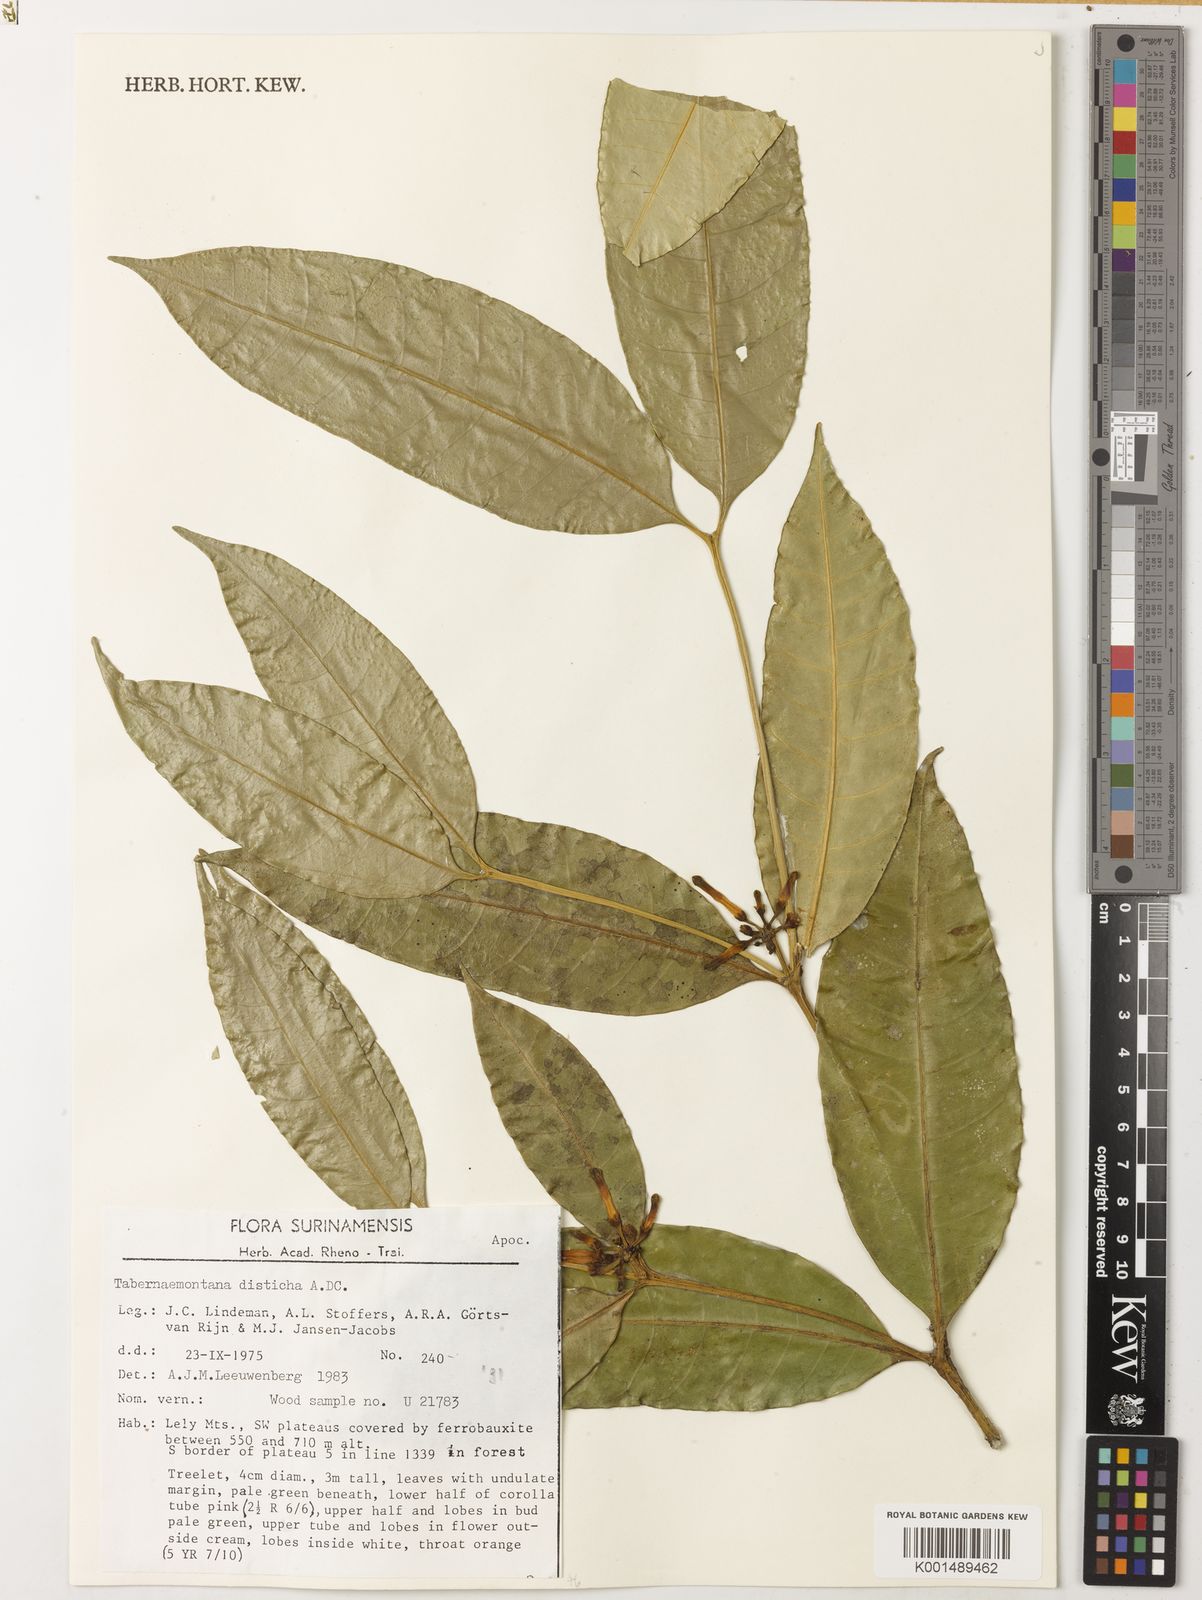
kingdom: Plantae
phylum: Tracheophyta
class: Magnoliopsida
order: Gentianales
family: Apocynaceae
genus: Tabernaemontana
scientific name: Tabernaemontana disticha
